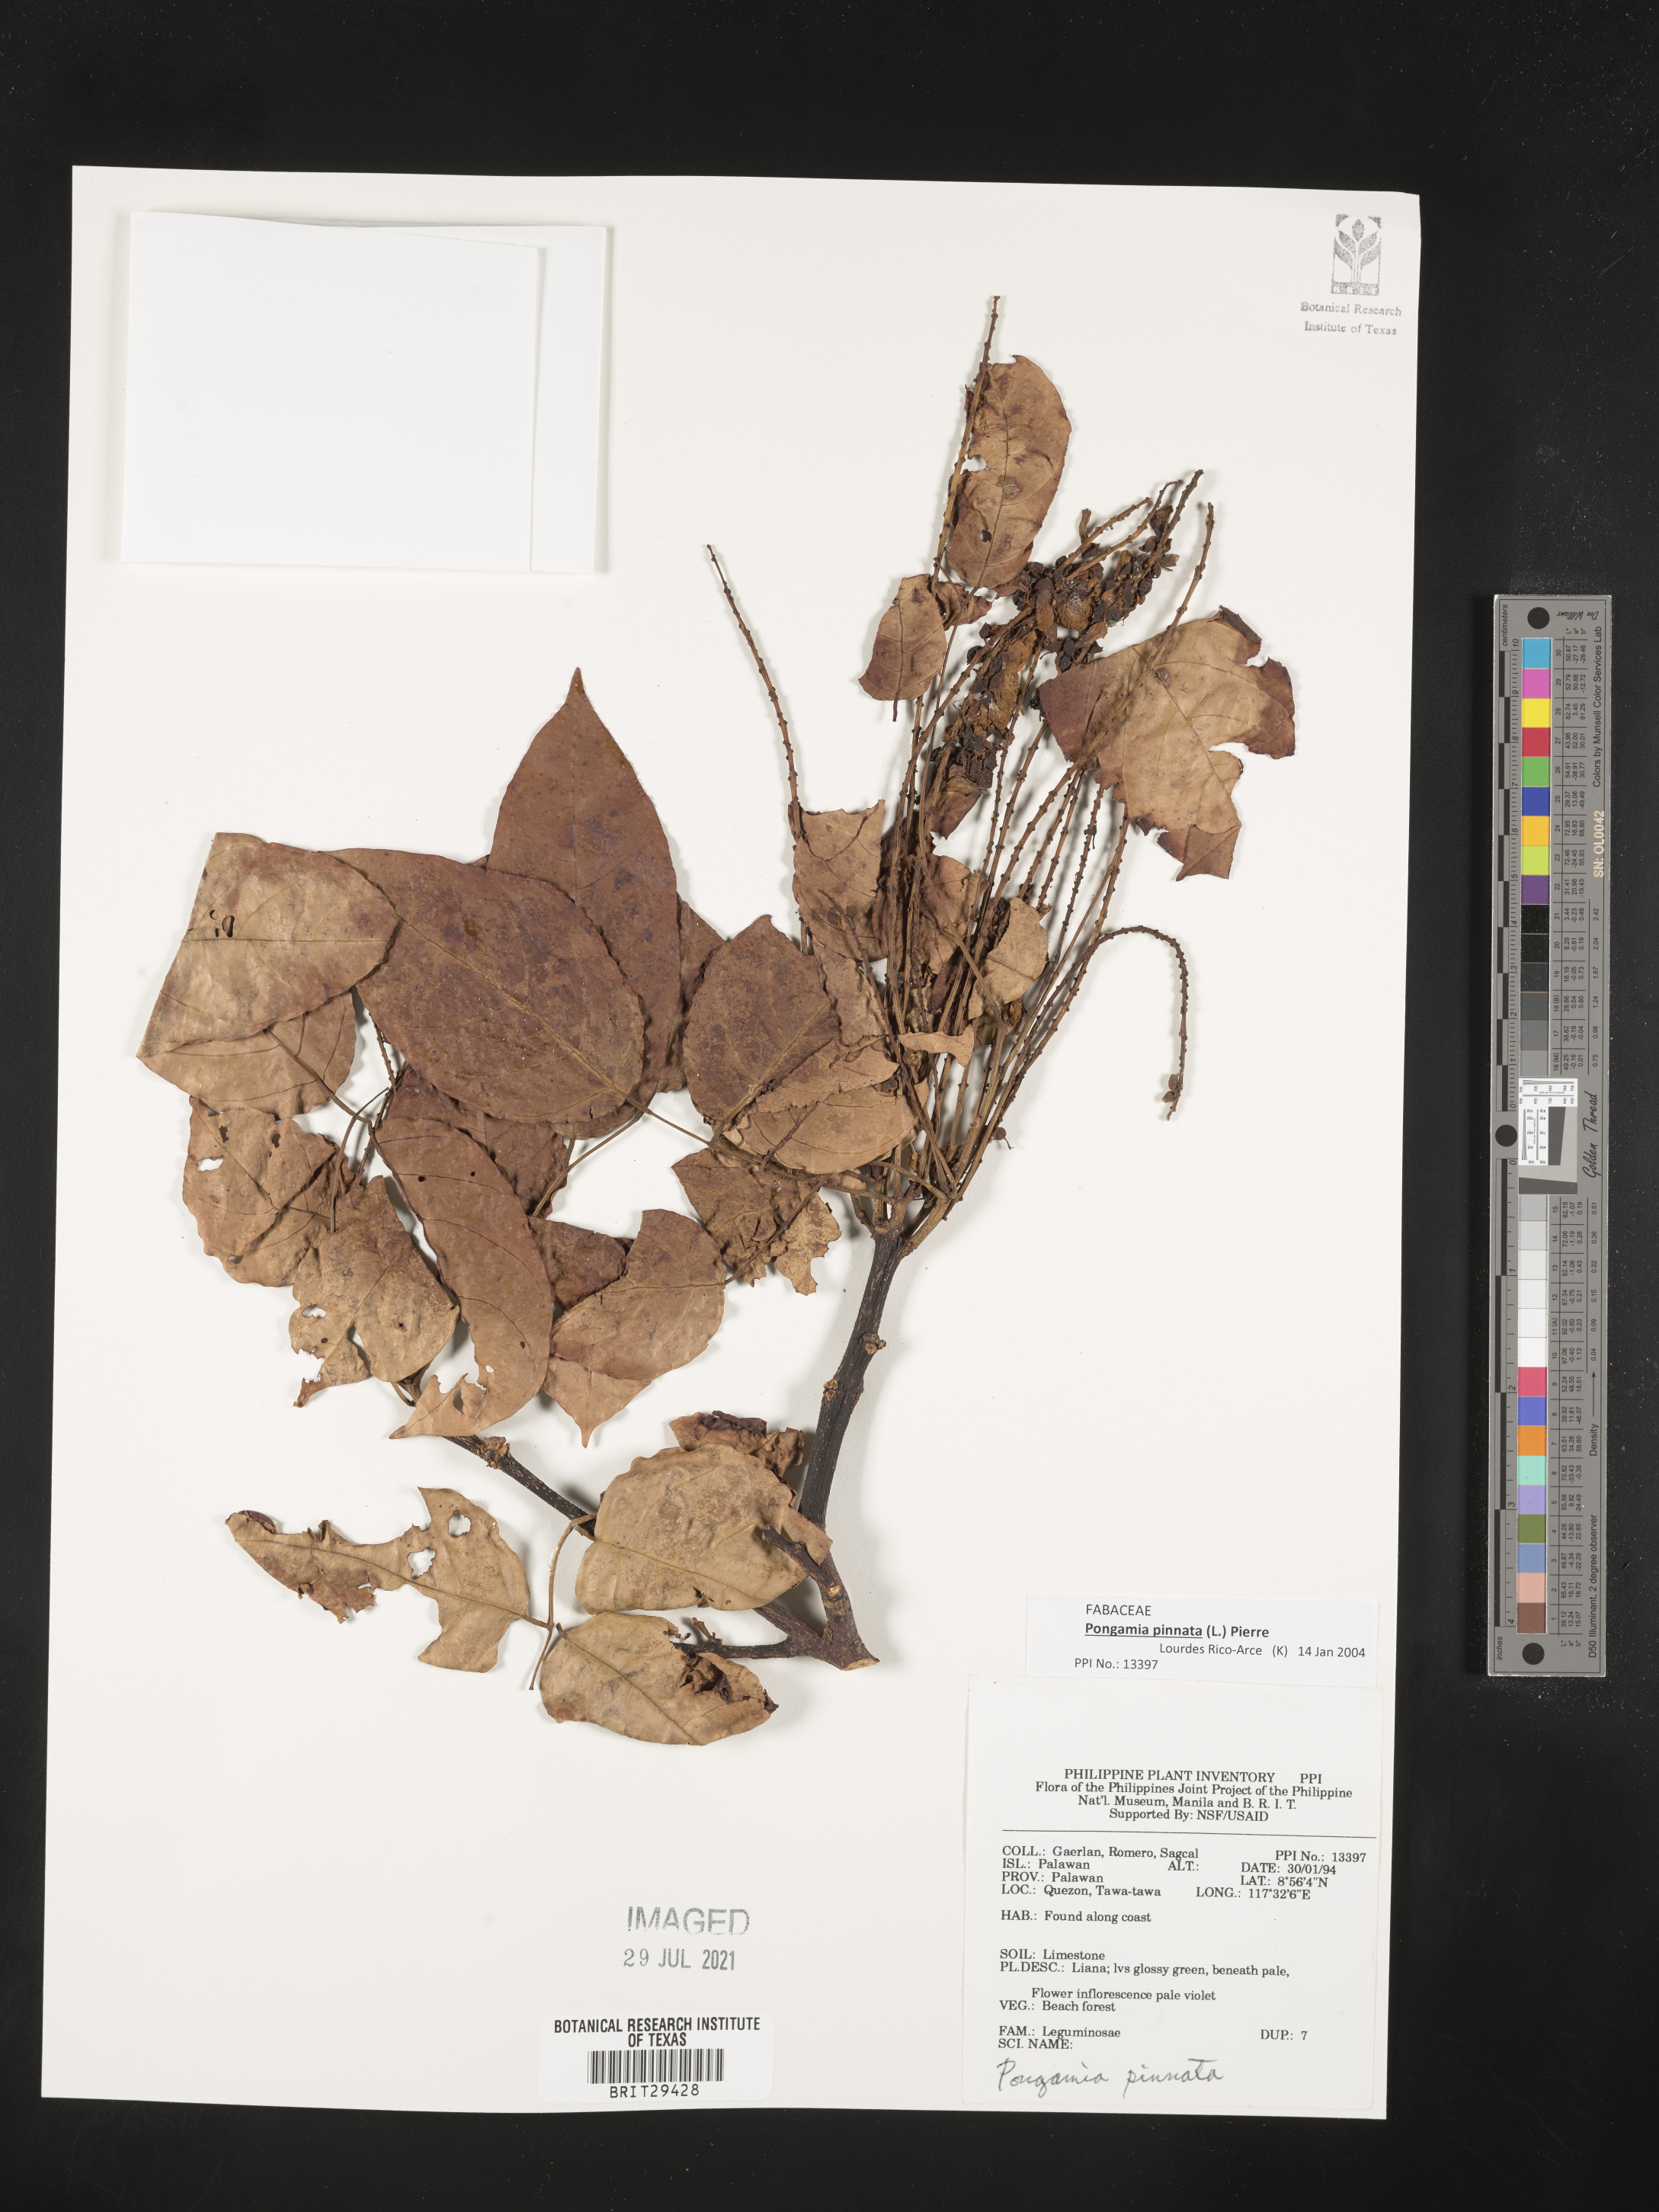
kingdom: Plantae
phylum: Tracheophyta
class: Magnoliopsida
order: Fabales
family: Fabaceae
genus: Pongamia
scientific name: Pongamia pinnata
